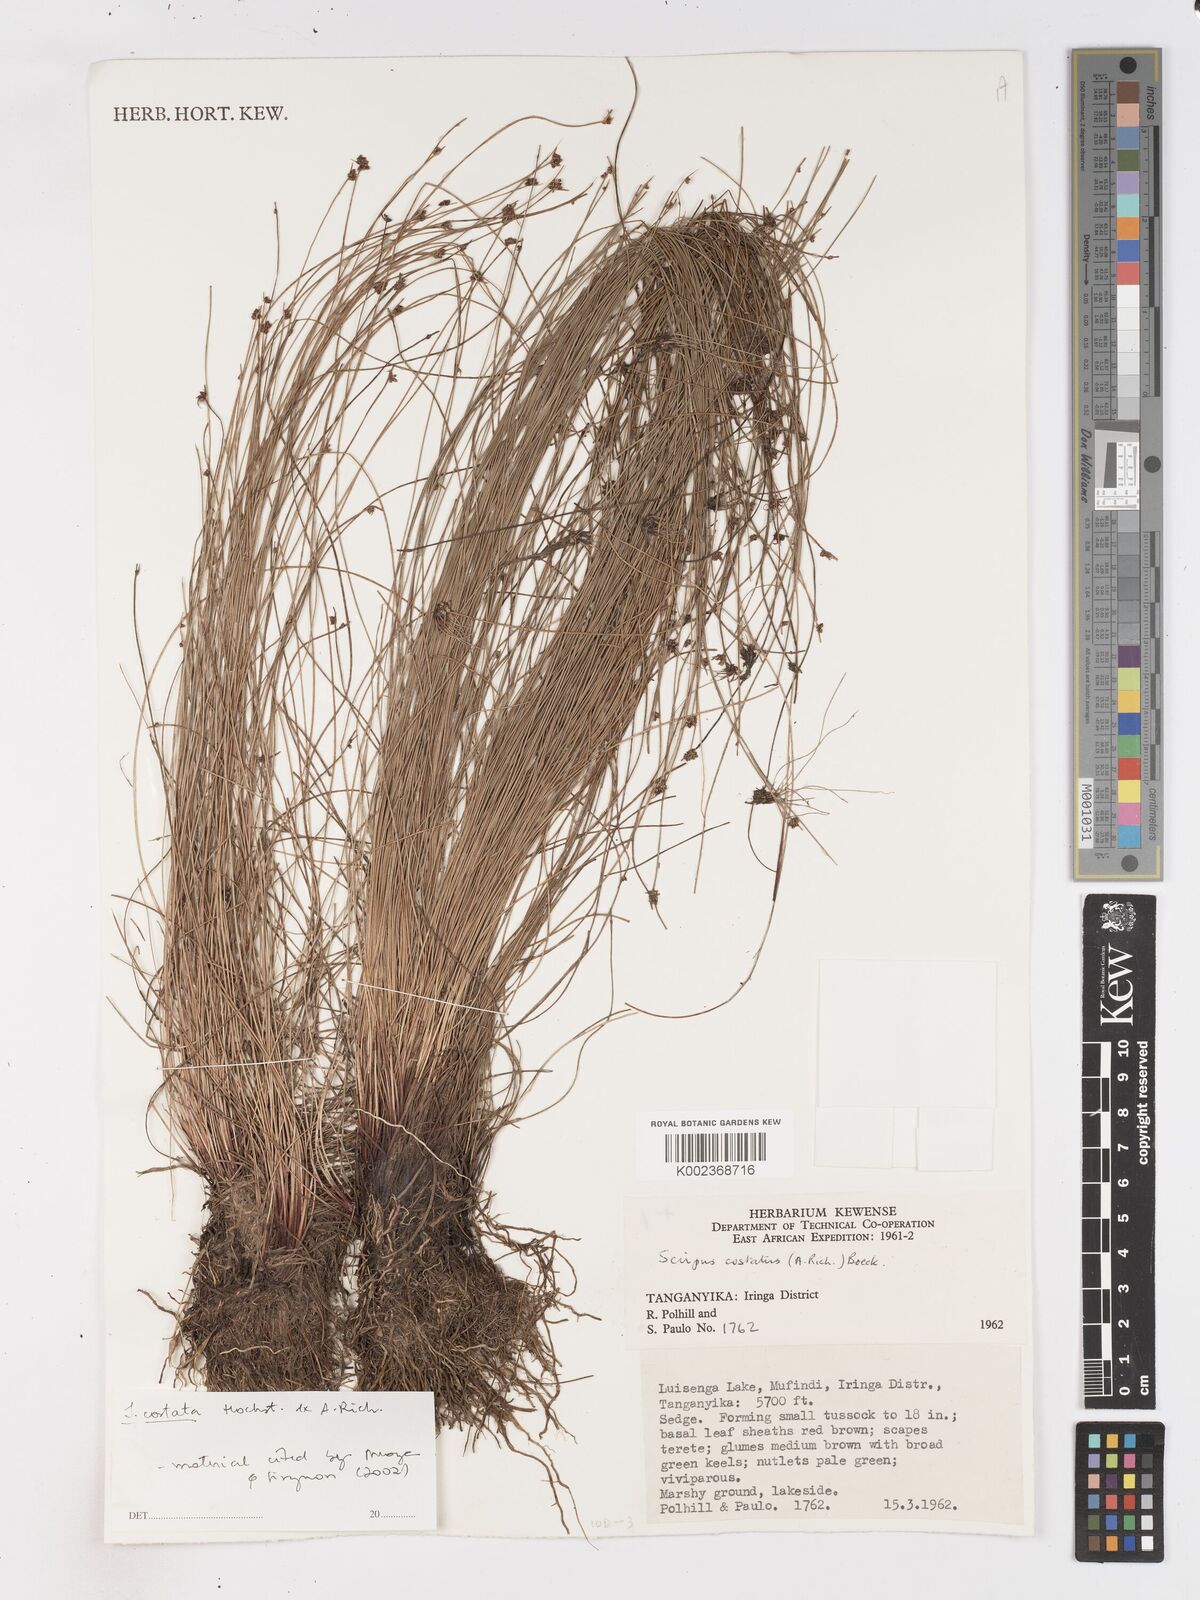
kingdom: Plantae
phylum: Tracheophyta
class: Liliopsida
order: Poales
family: Cyperaceae
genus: Isolepis
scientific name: Isolepis costata
